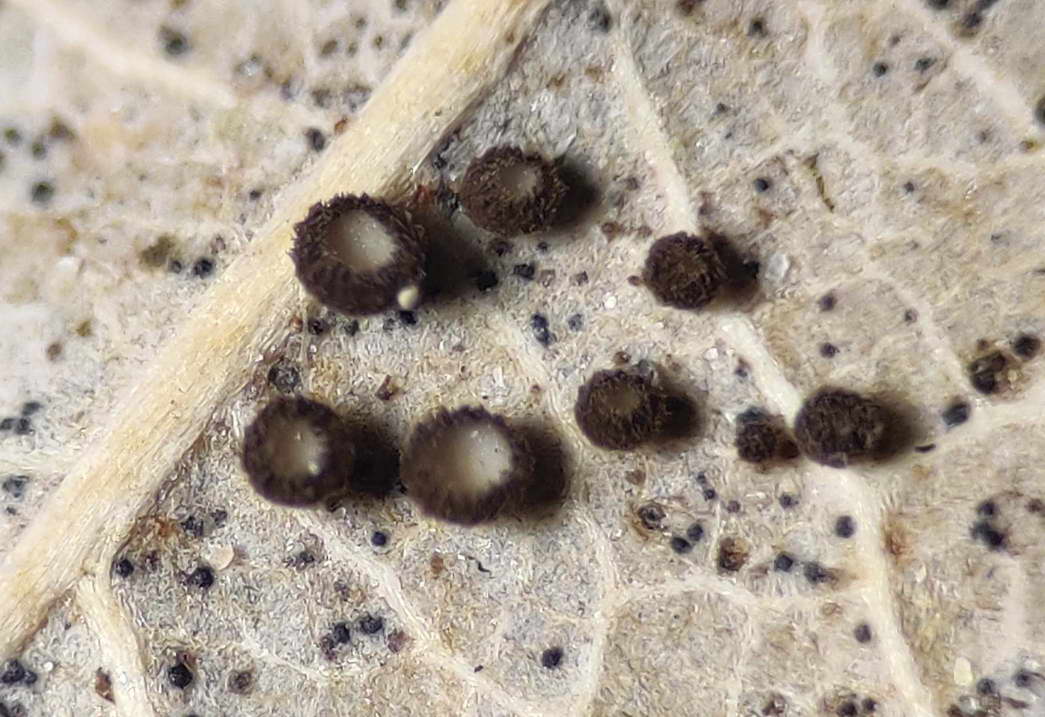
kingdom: Fungi
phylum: Ascomycota
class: Leotiomycetes
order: Helotiales
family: Lachnaceae
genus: Brunnipila
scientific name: Brunnipila brunneola
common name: læderbrun frynseskive
